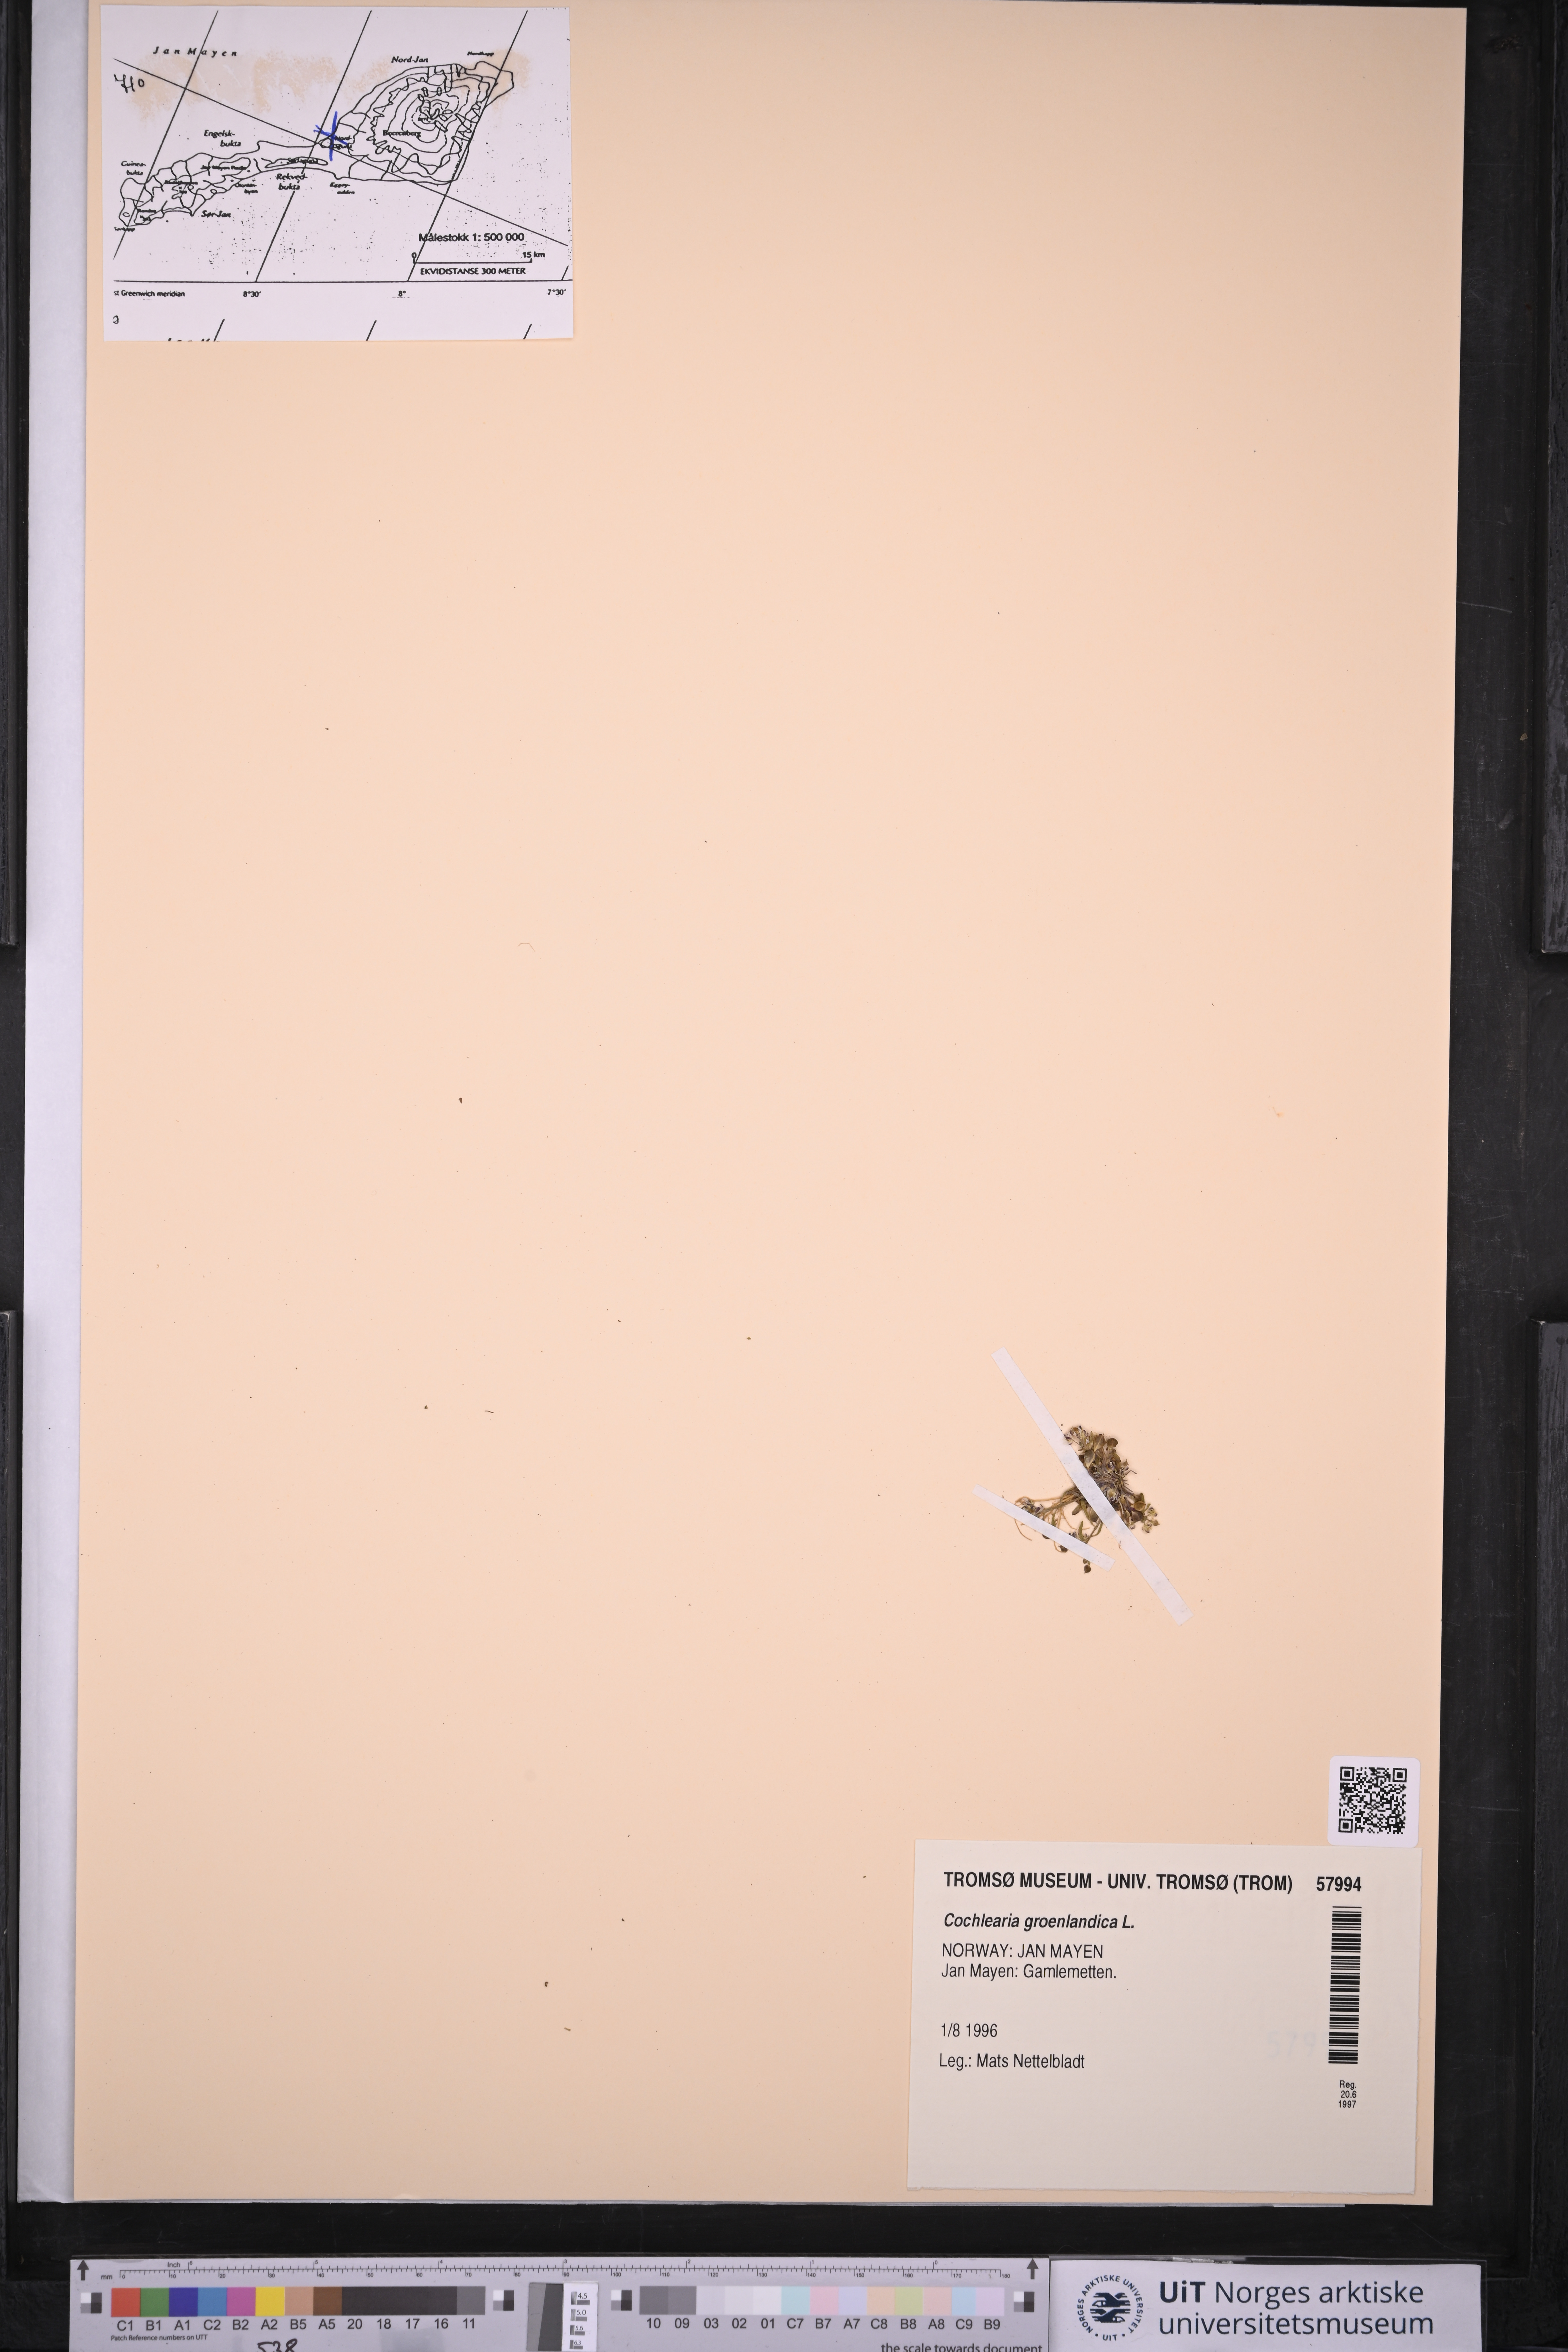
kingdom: Plantae
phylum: Tracheophyta
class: Magnoliopsida
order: Brassicales
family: Brassicaceae
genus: Cochlearia
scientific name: Cochlearia groenlandica
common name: Danish scurvygrass
